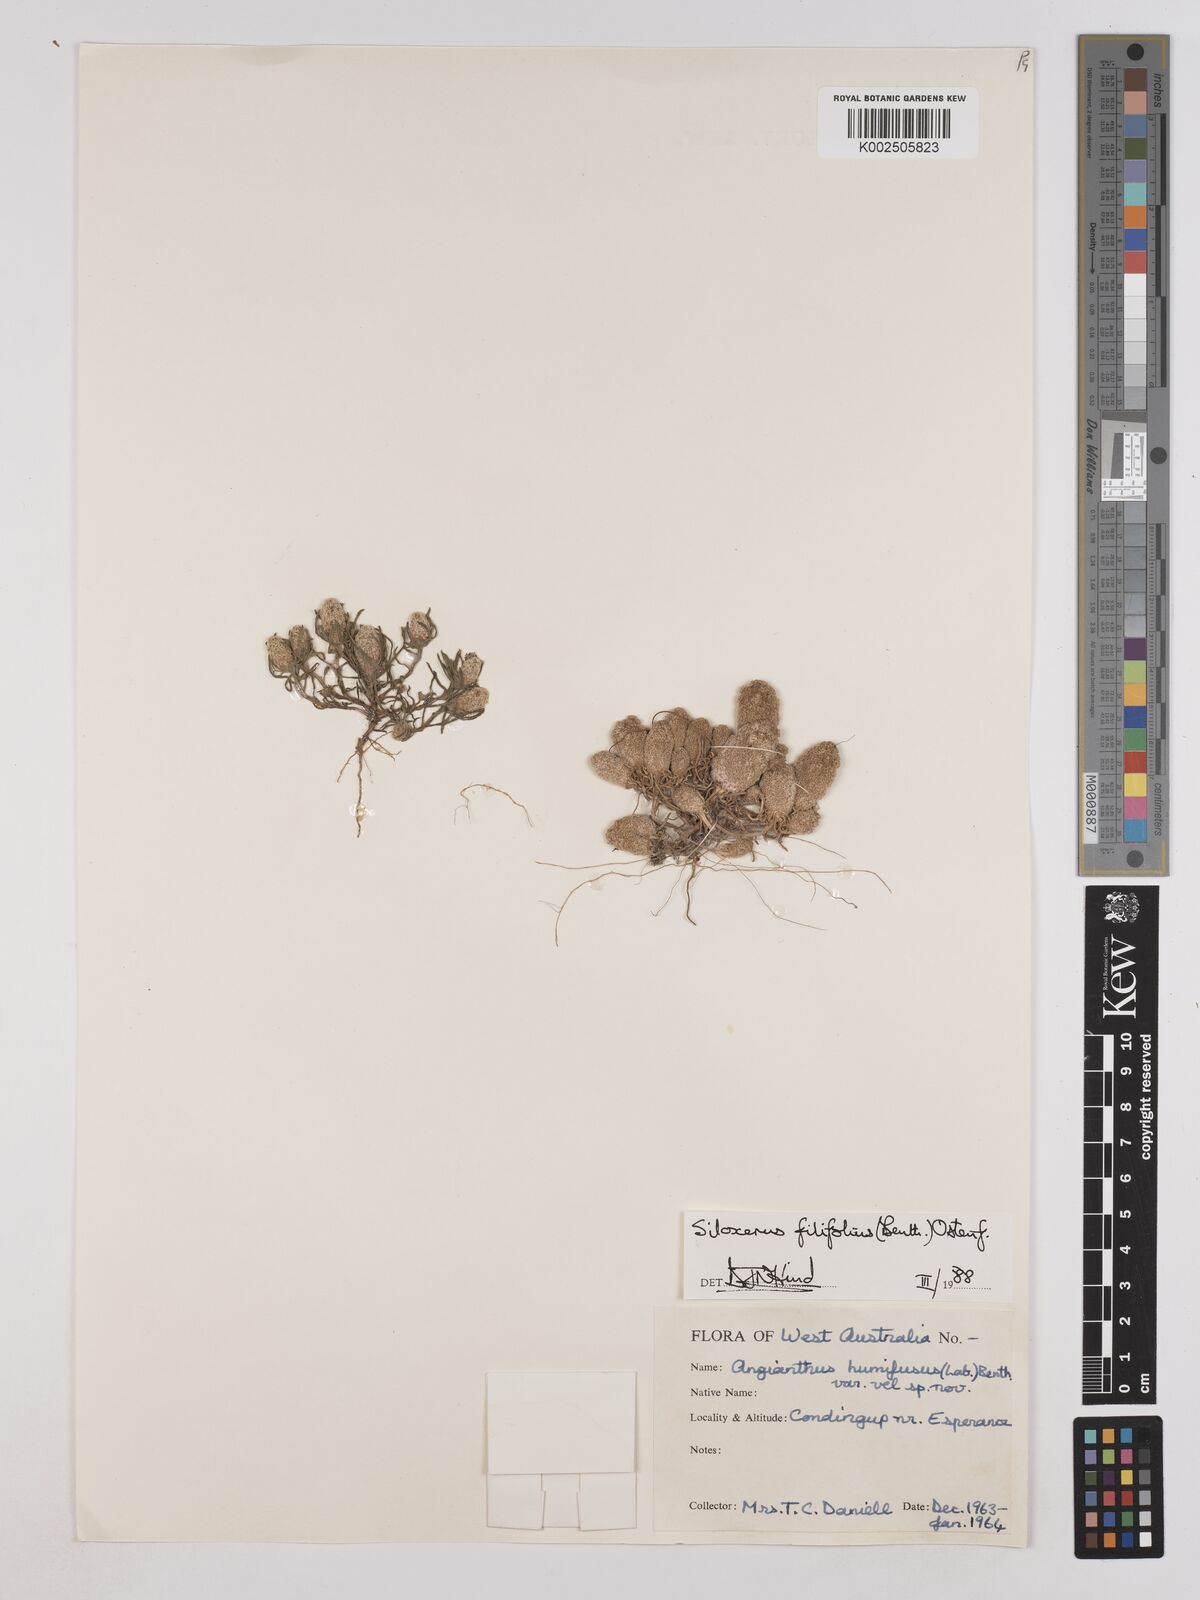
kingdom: Plantae
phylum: Tracheophyta
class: Magnoliopsida
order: Asterales
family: Asteraceae
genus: Siloxerus
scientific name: Siloxerus filifolius
